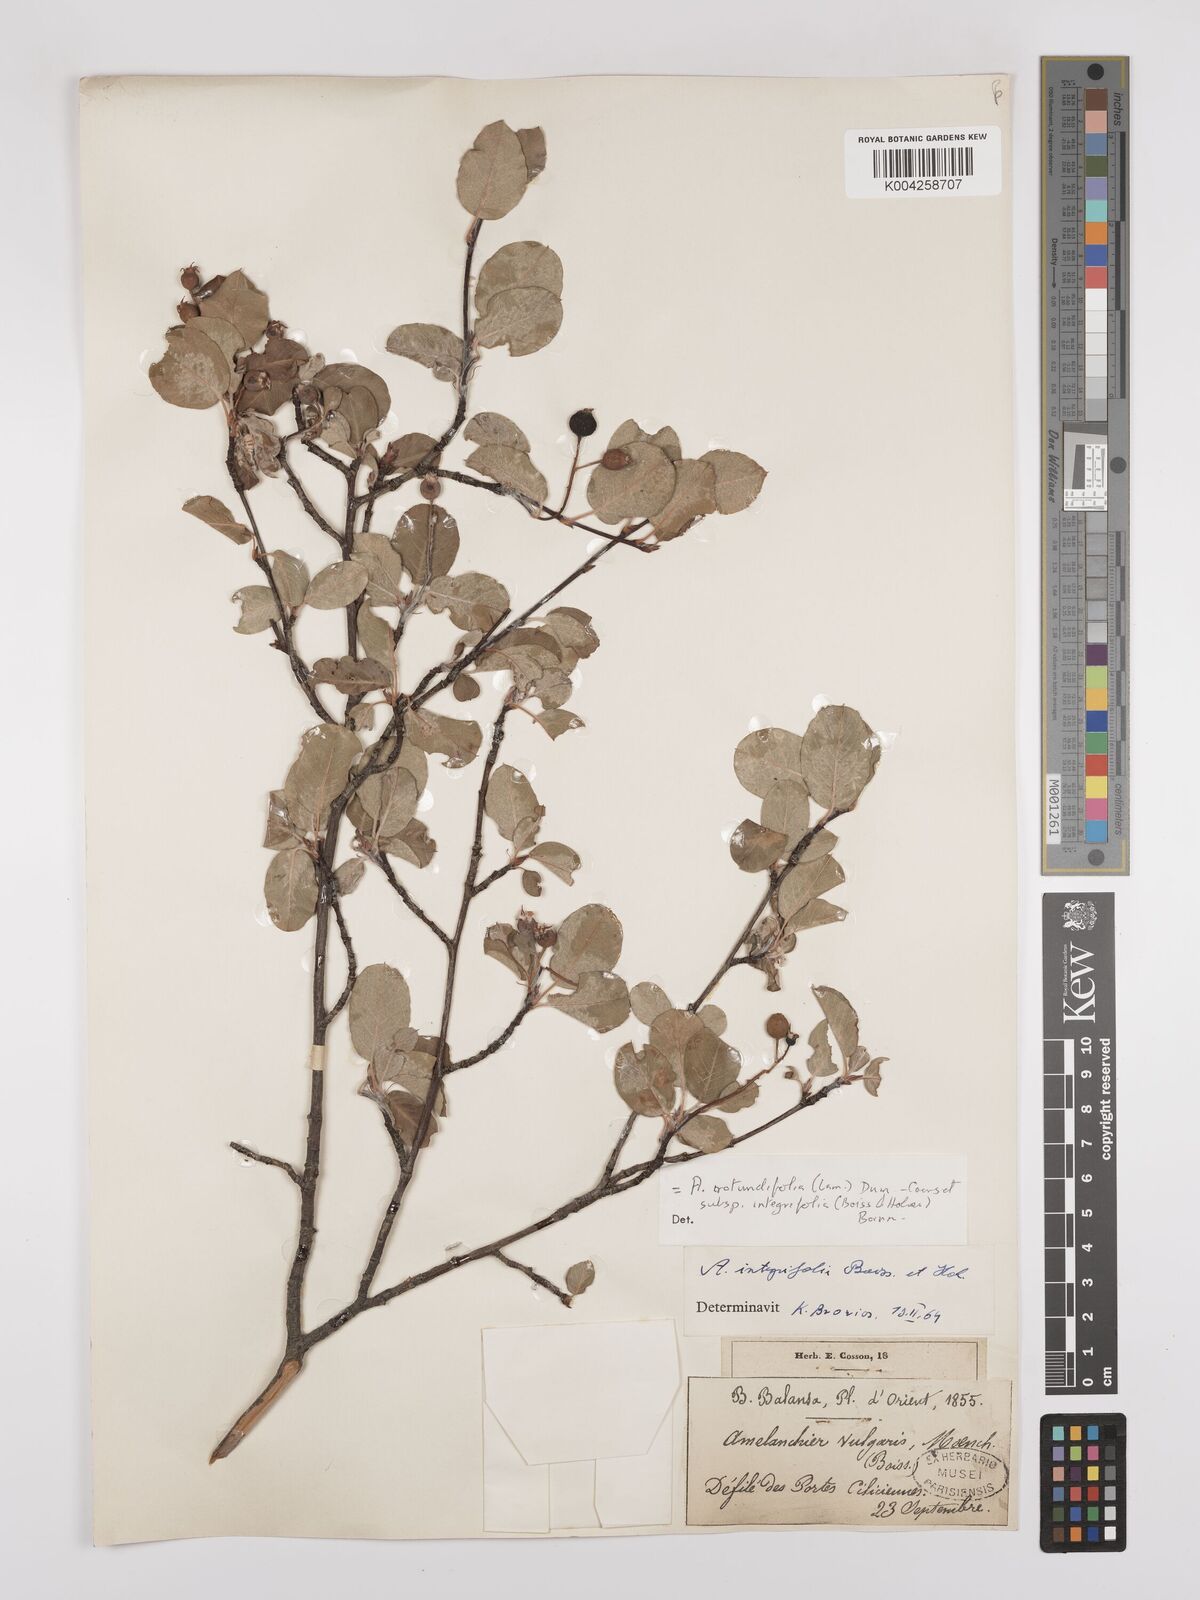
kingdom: Plantae
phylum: Tracheophyta
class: Magnoliopsida
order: Rosales
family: Rosaceae
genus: Amelanchier
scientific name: Amelanchier ovalis
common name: Serviceberry
